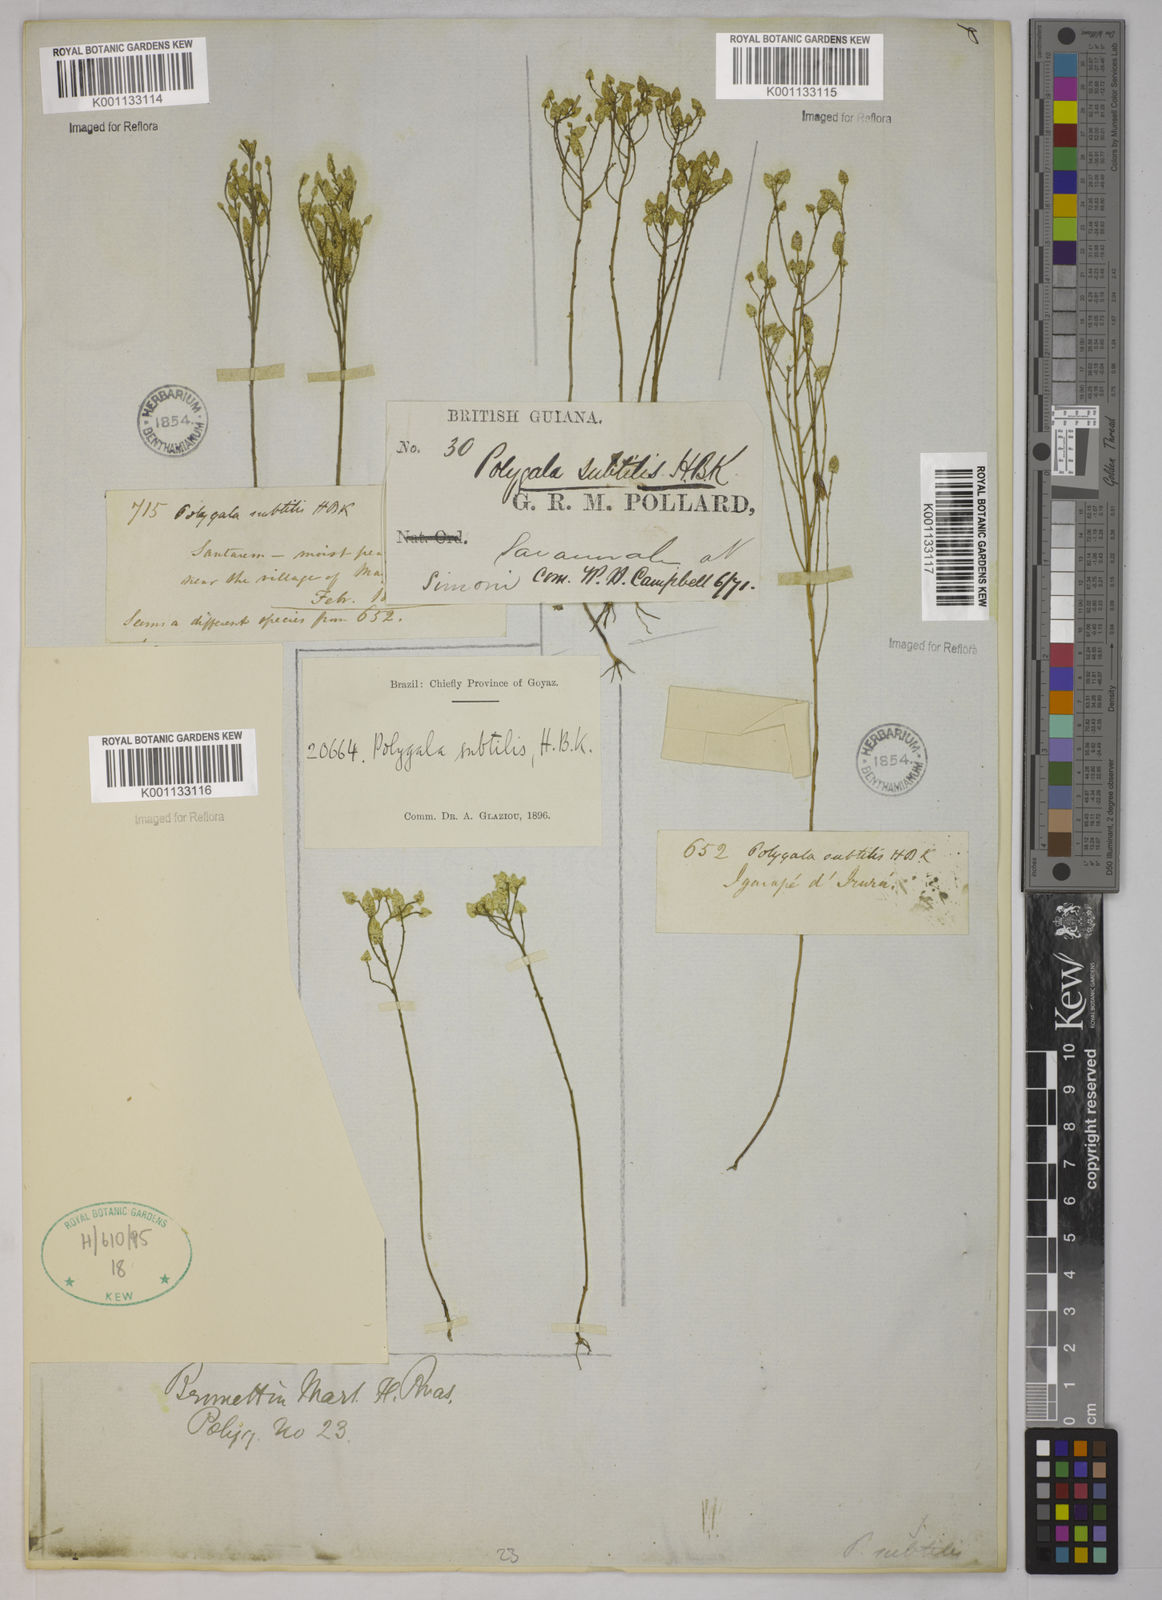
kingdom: Plantae
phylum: Tracheophyta
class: Magnoliopsida
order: Fabales
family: Polygalaceae
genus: Polygala
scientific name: Polygala subtilis
